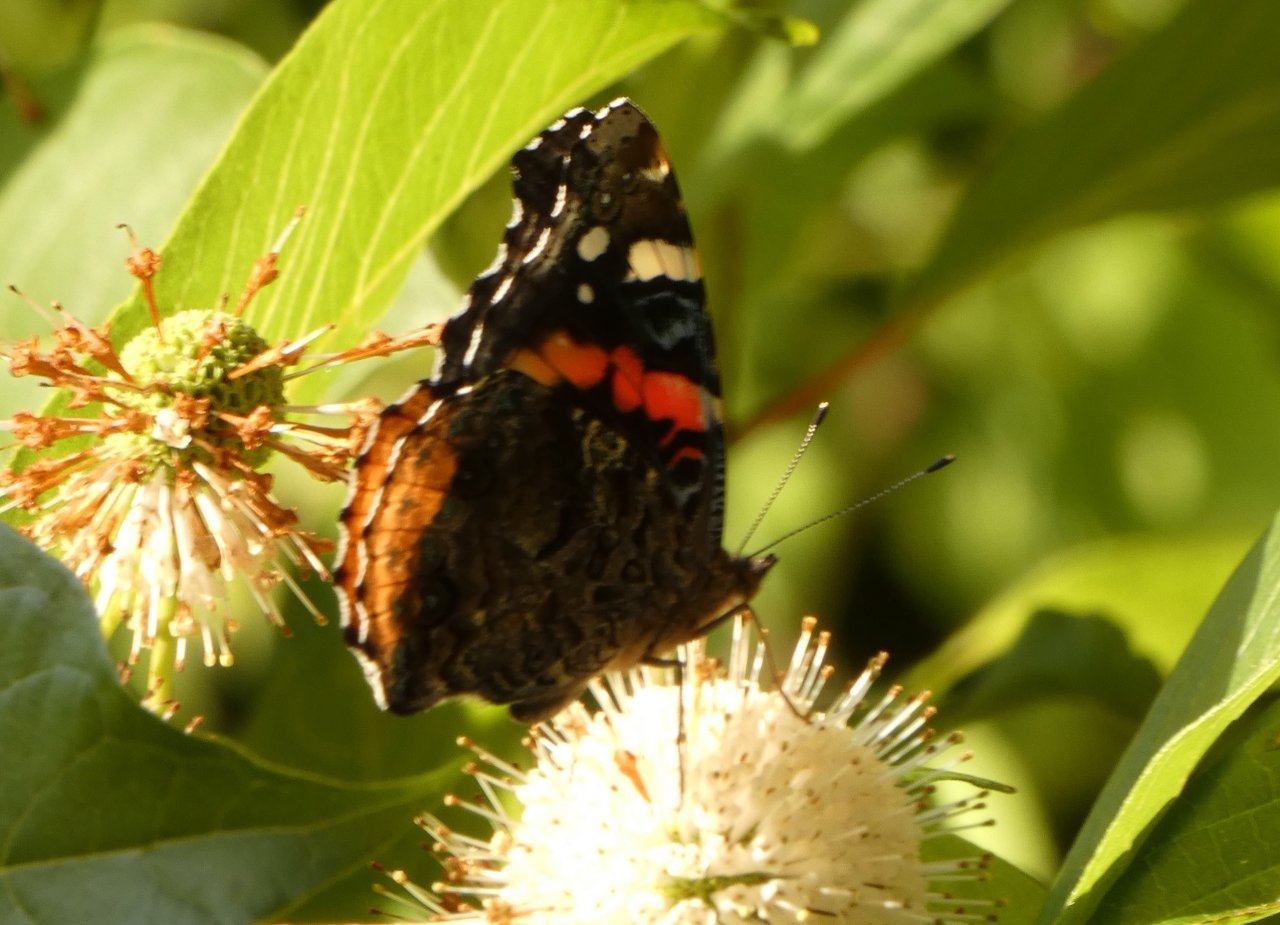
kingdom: Animalia
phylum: Arthropoda
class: Insecta
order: Lepidoptera
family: Nymphalidae
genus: Vanessa
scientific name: Vanessa atalanta
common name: Red Admiral
